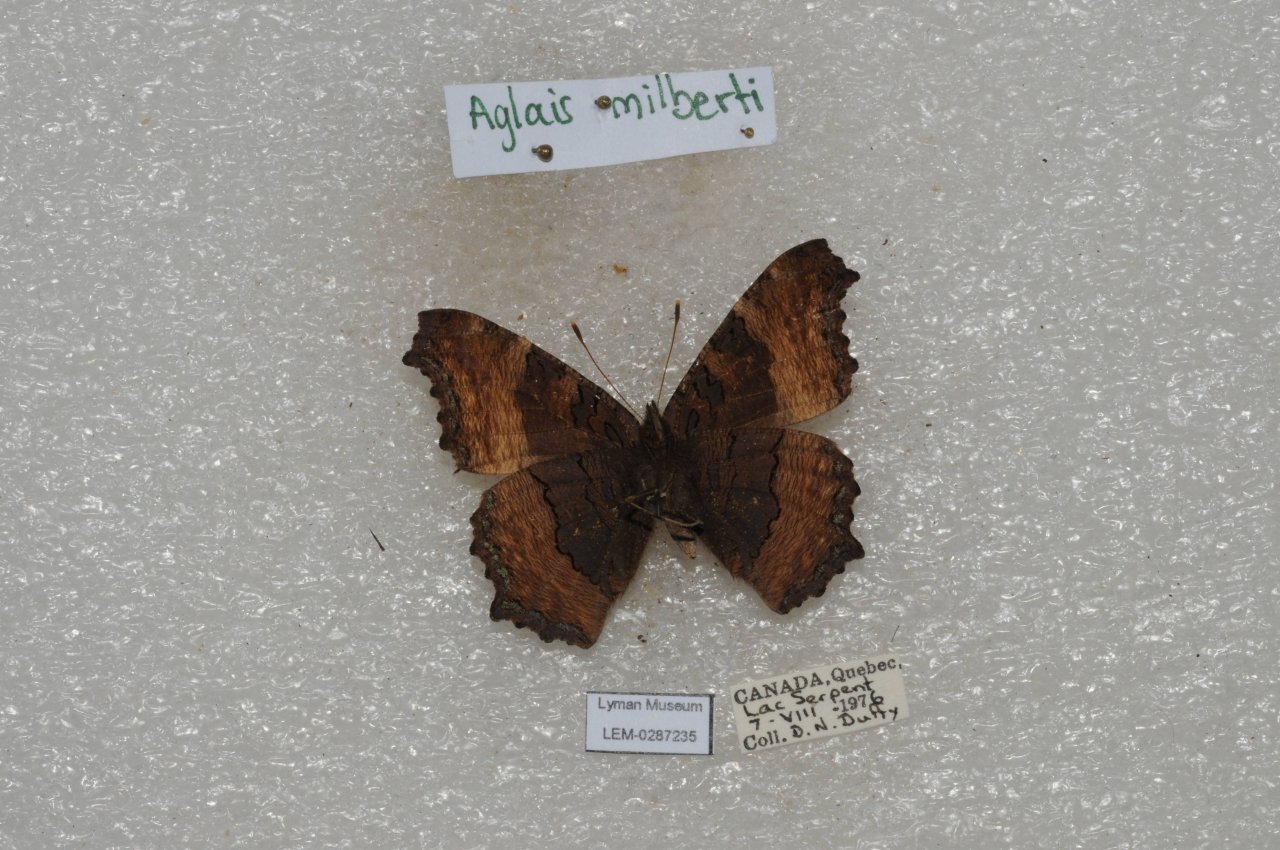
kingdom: Animalia
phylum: Arthropoda
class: Insecta
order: Lepidoptera
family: Nymphalidae
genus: Aglais
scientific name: Aglais milberti
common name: Milbert's Tortoiseshell
